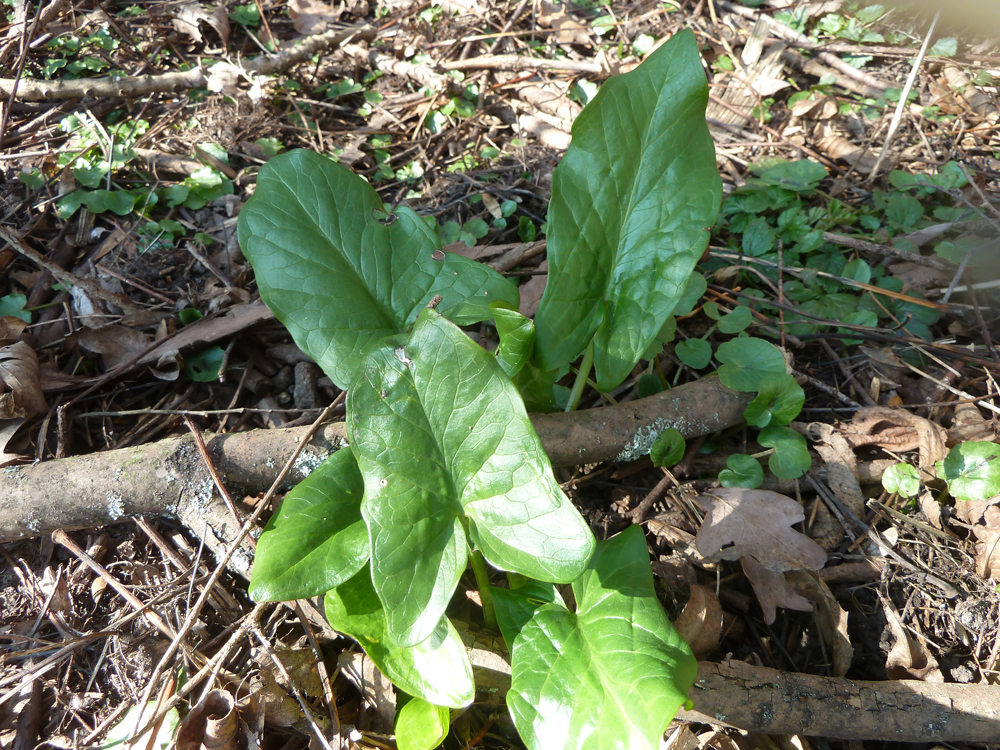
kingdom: Plantae
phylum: Tracheophyta
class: Liliopsida
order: Alismatales
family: Araceae
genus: Arum
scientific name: Arum maculatum
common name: Lords-and-ladies
